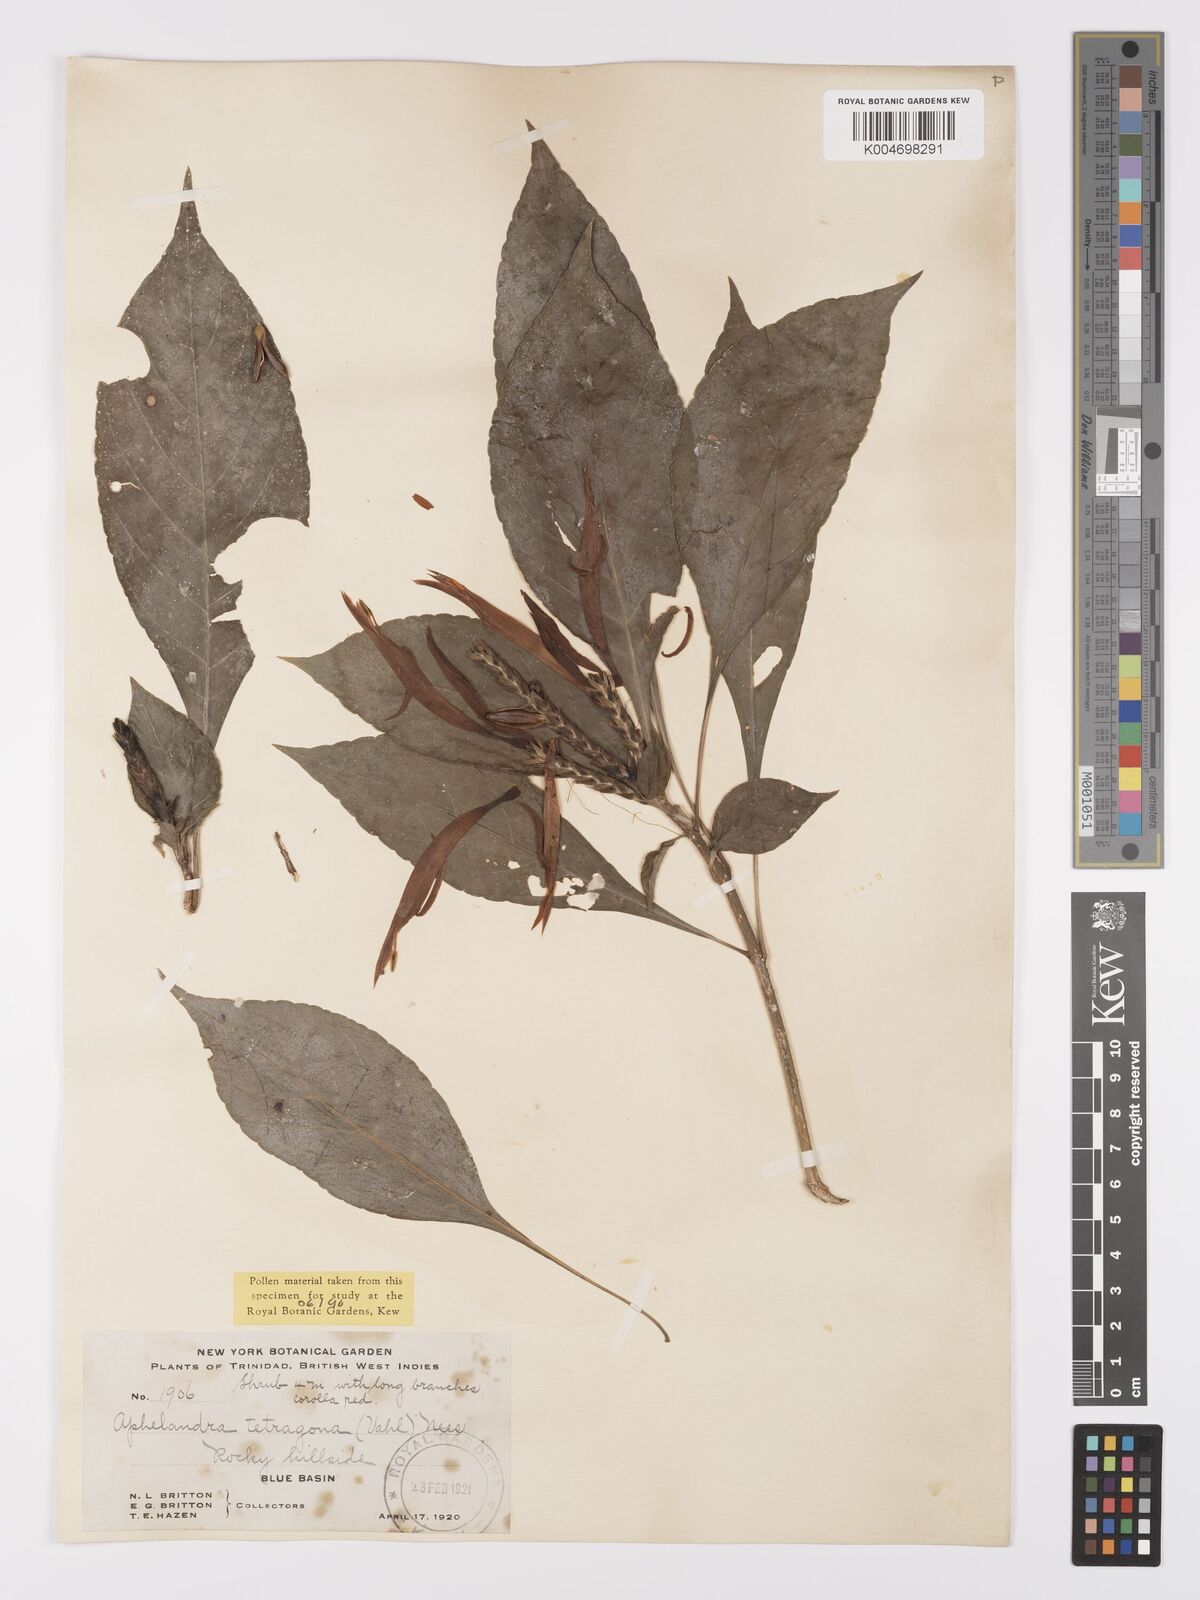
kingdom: Plantae
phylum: Tracheophyta
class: Magnoliopsida
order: Lamiales
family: Acanthaceae
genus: Aphelandra
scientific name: Aphelandra arborea
